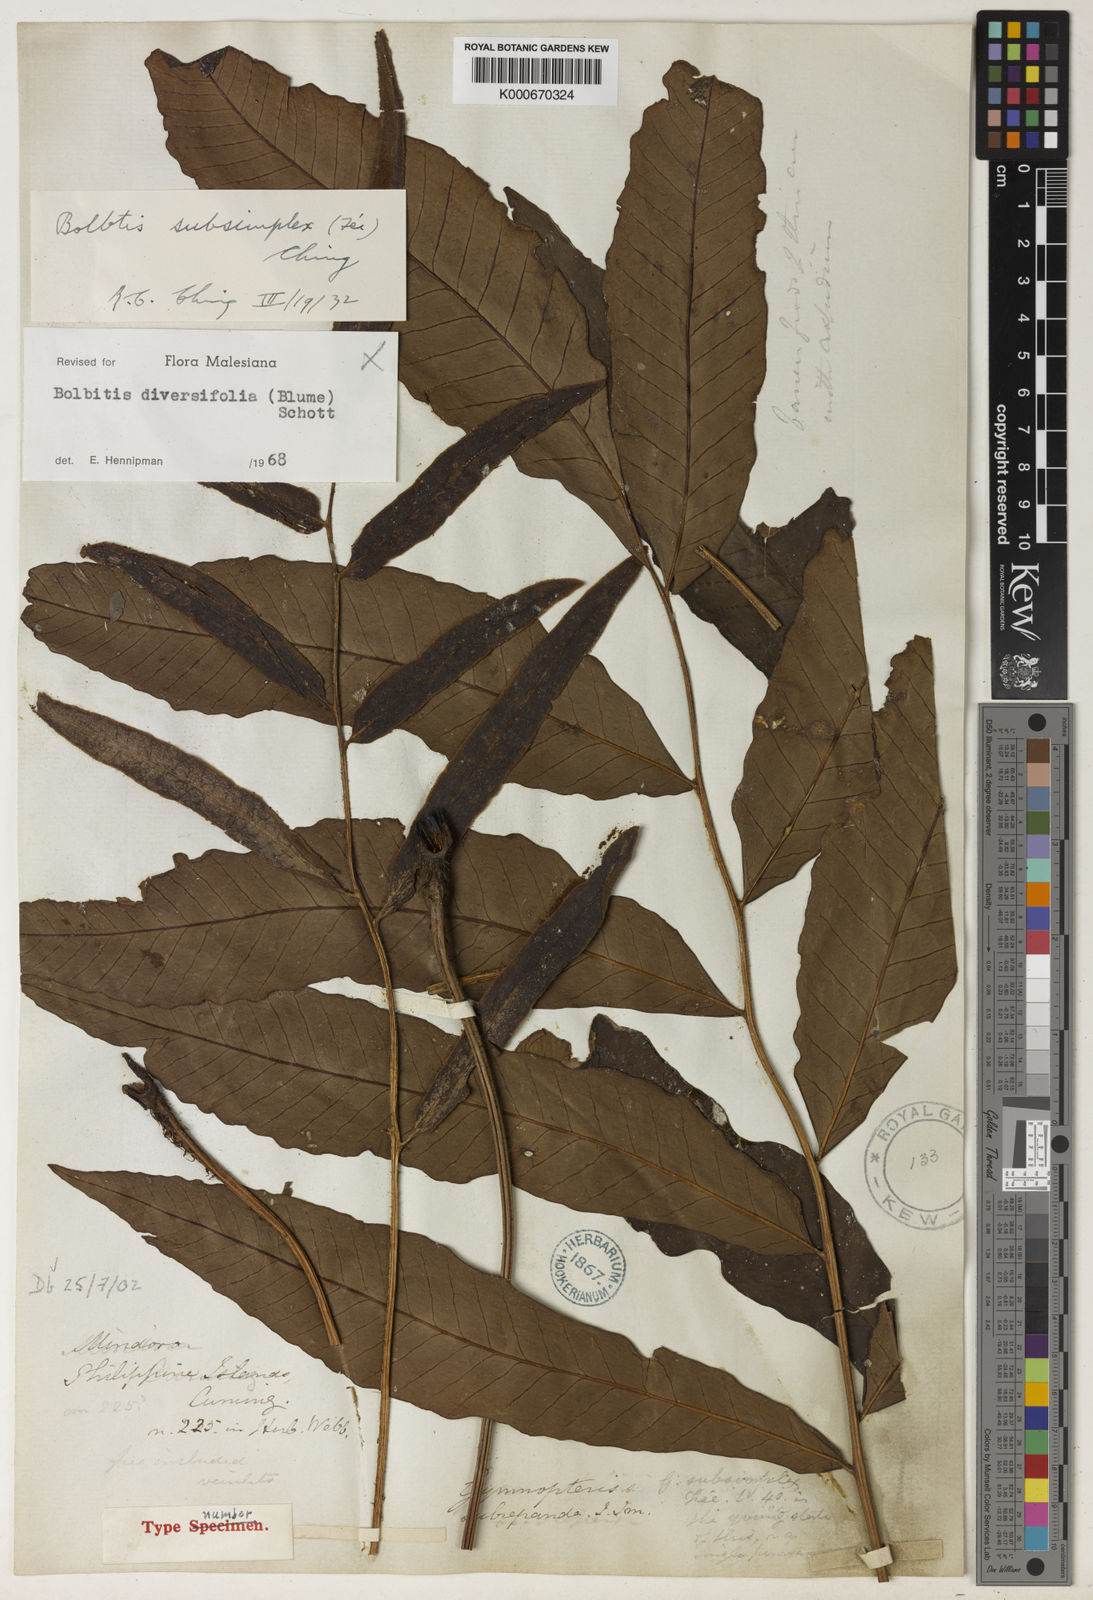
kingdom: Plantae
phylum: Tracheophyta
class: Polypodiopsida
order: Polypodiales
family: Dryopteridaceae
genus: Bolbitis
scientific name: Bolbitis sinuata
